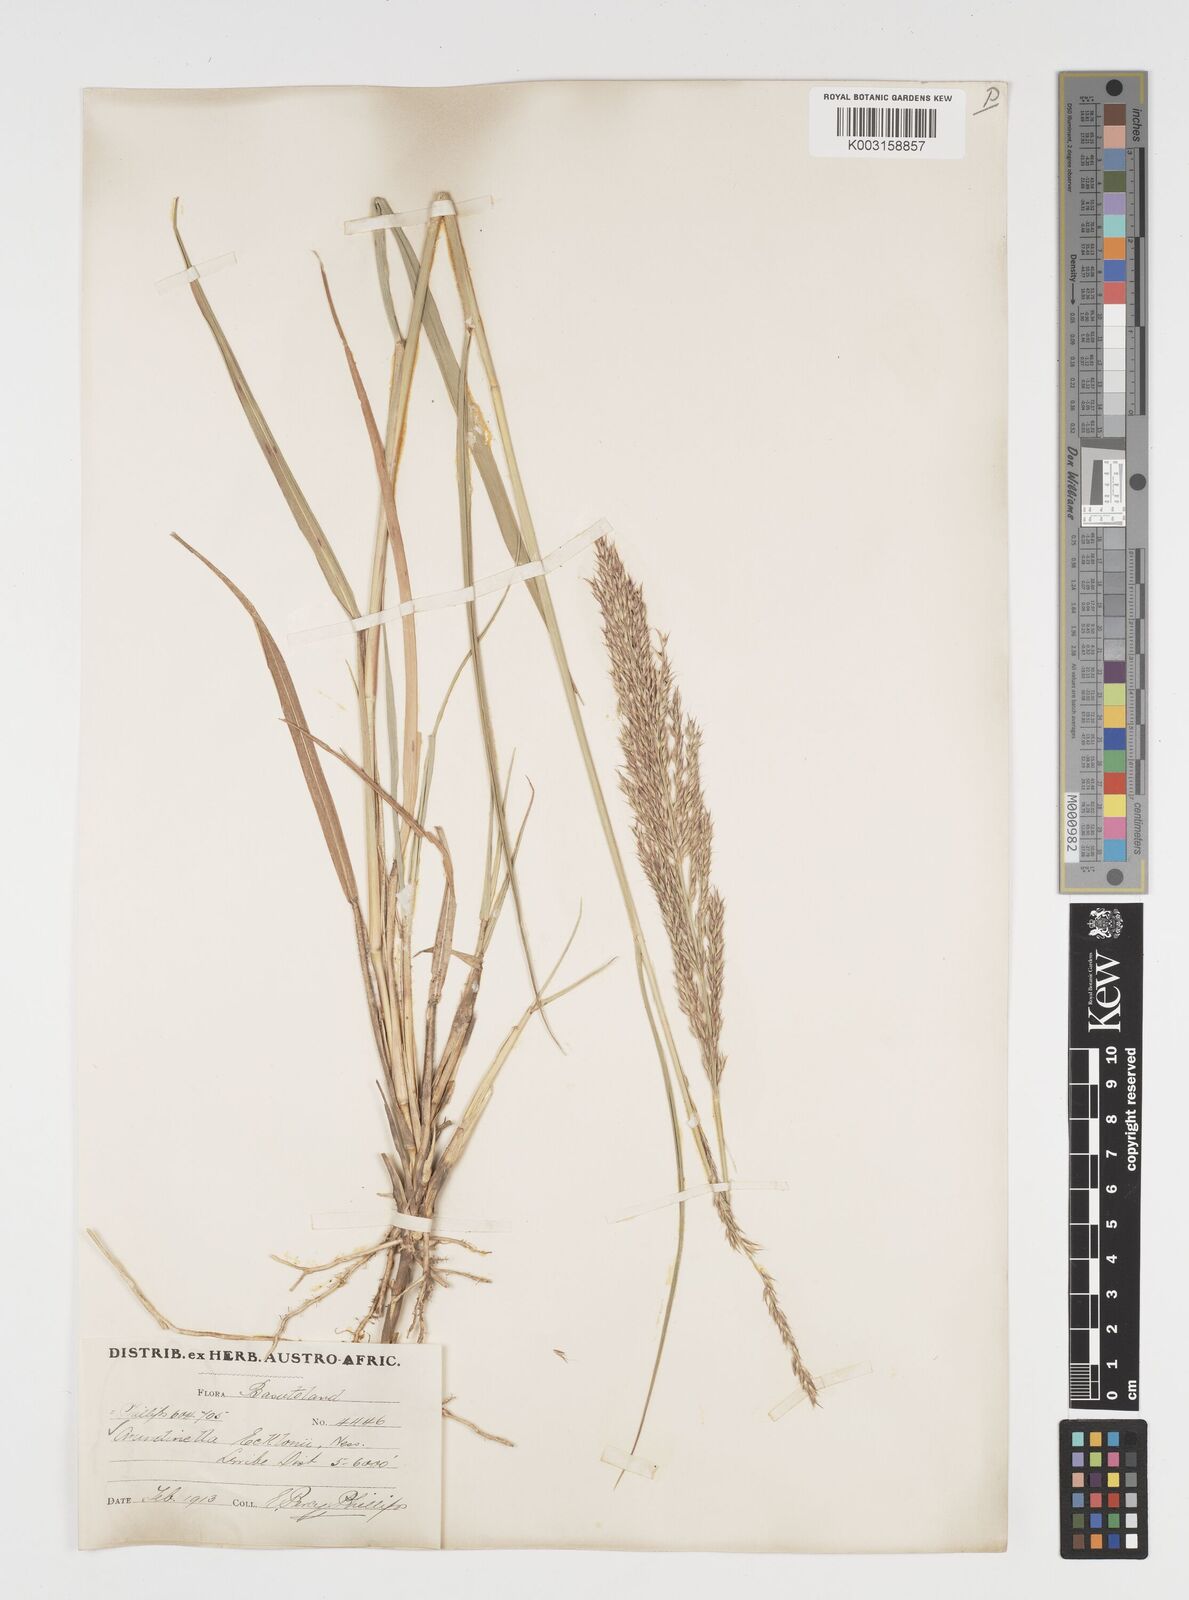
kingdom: Plantae
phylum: Tracheophyta
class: Liliopsida
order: Poales
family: Poaceae
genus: Arundinella
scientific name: Arundinella nepalensis
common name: Reed grass
